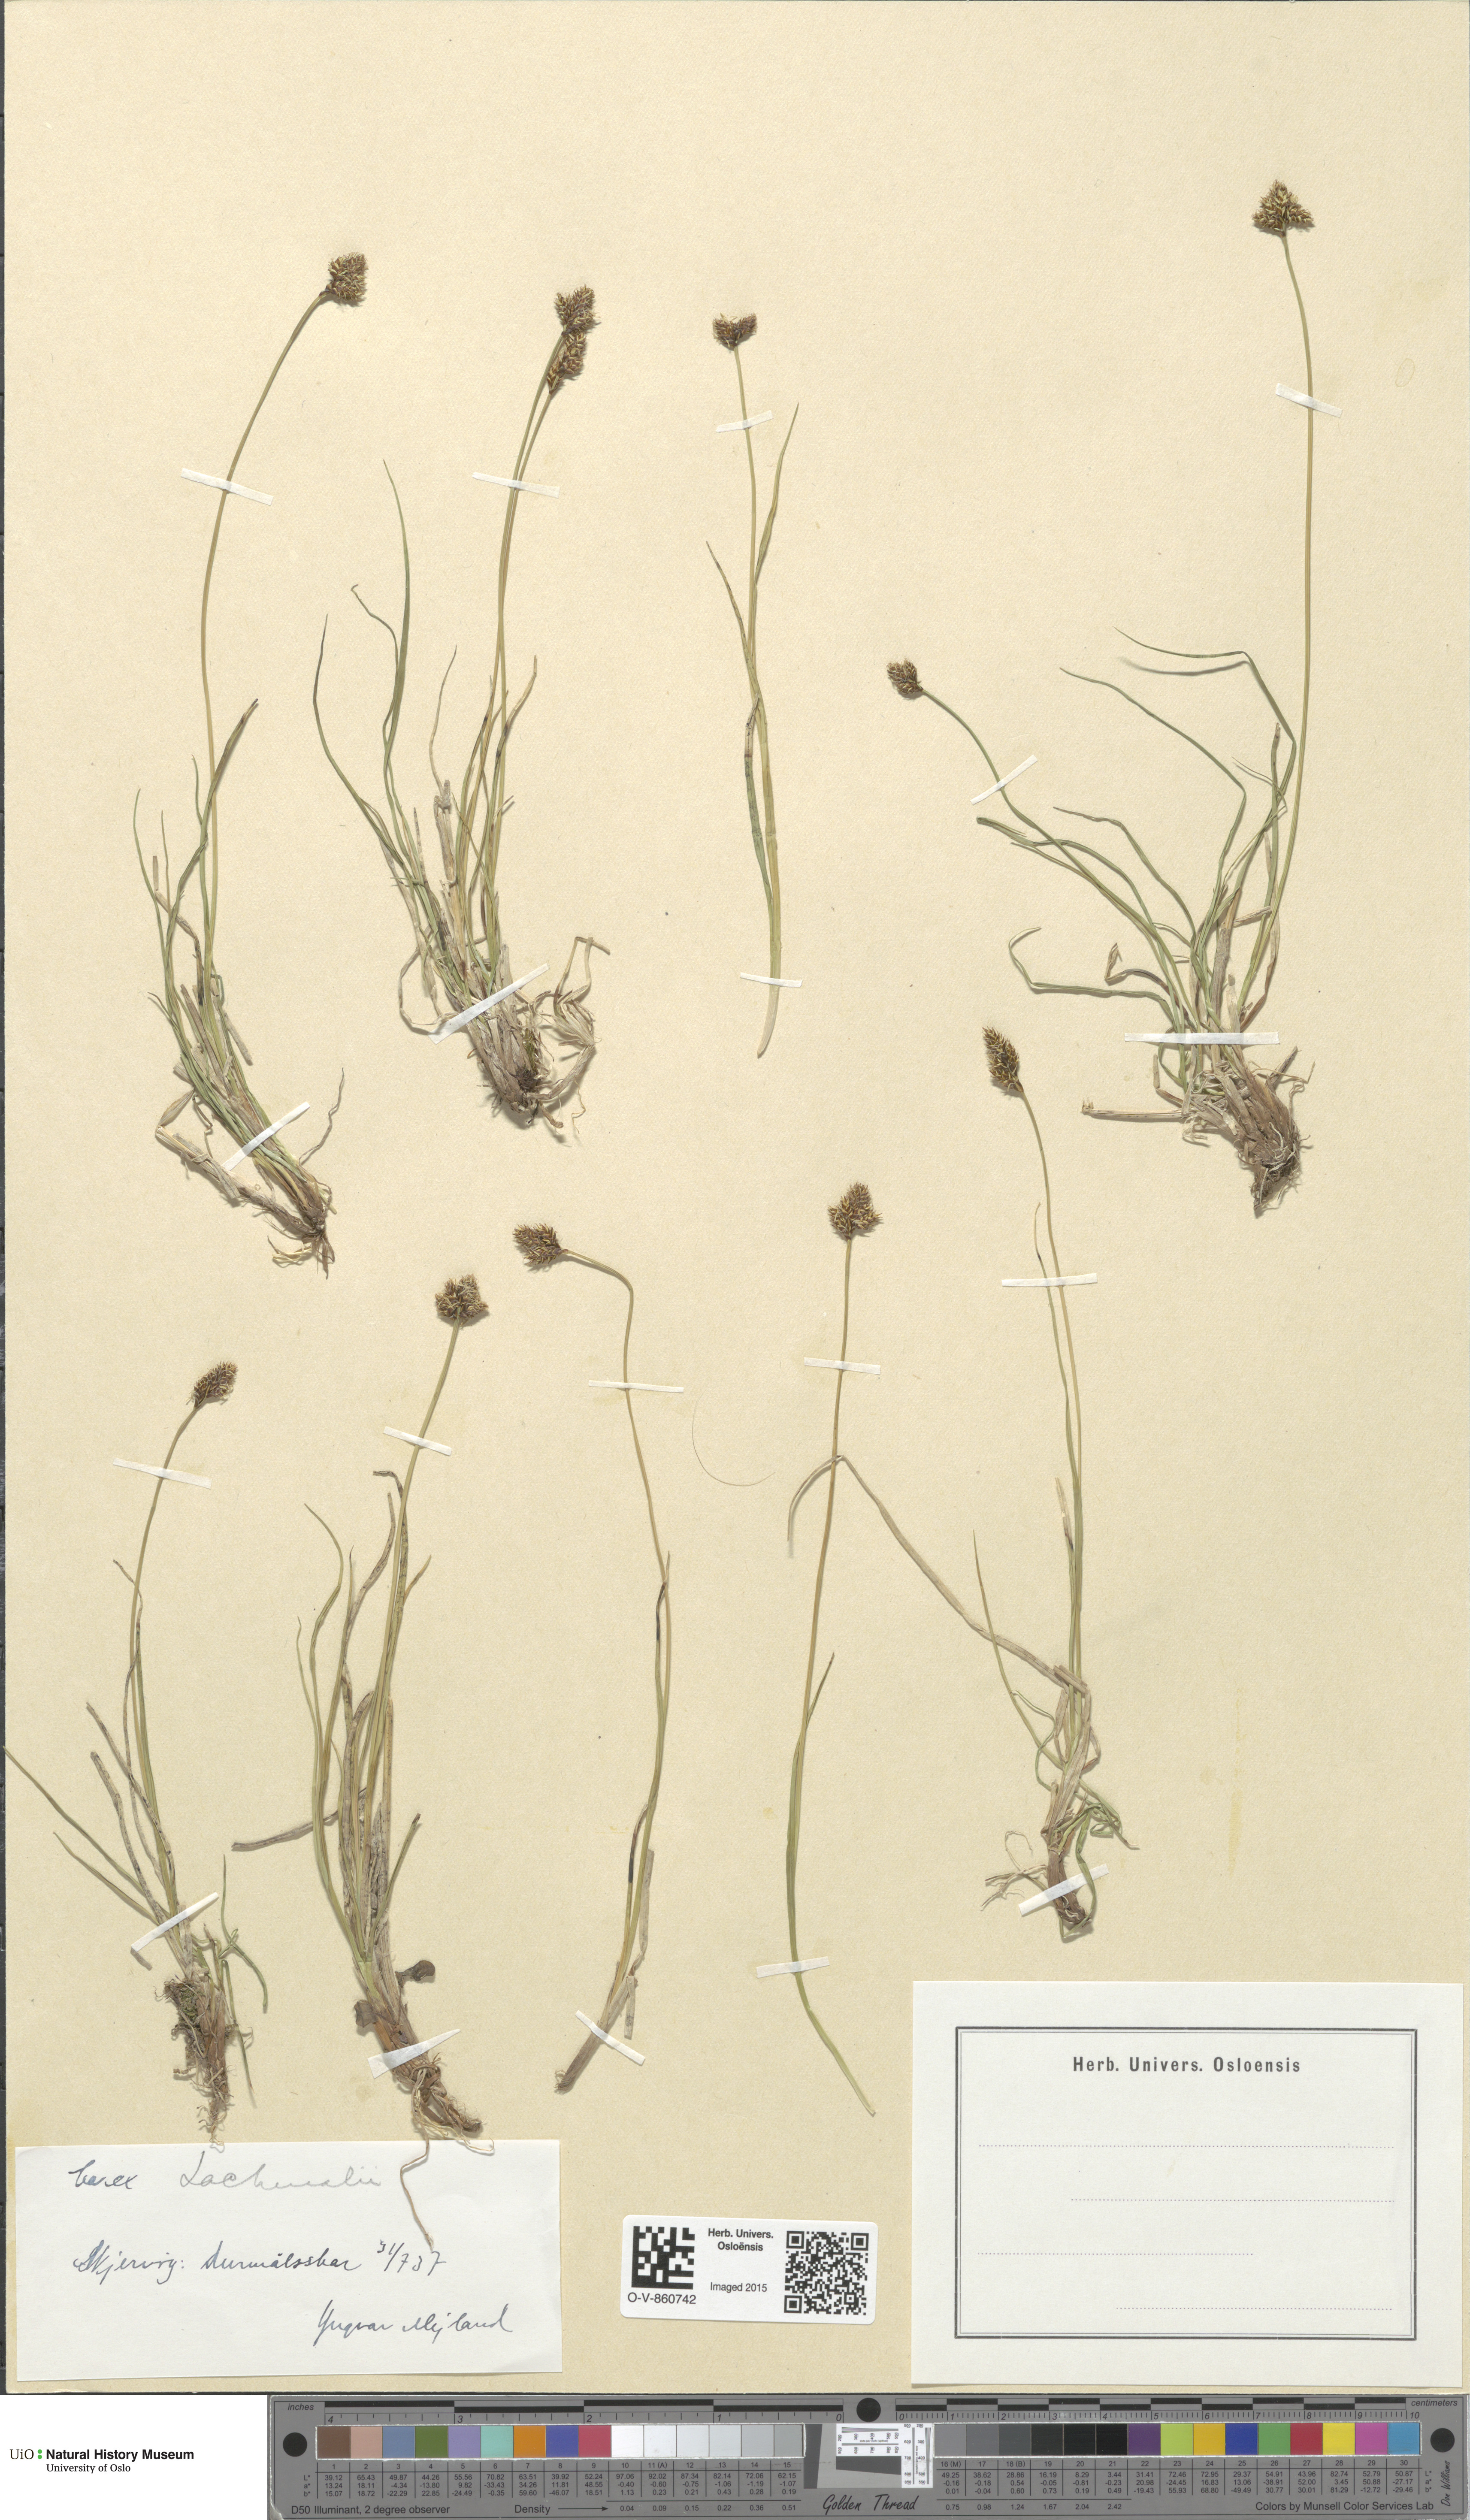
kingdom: Plantae
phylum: Tracheophyta
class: Liliopsida
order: Poales
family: Cyperaceae
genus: Carex
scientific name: Carex lachenalii
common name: Hare's-foot sedge
